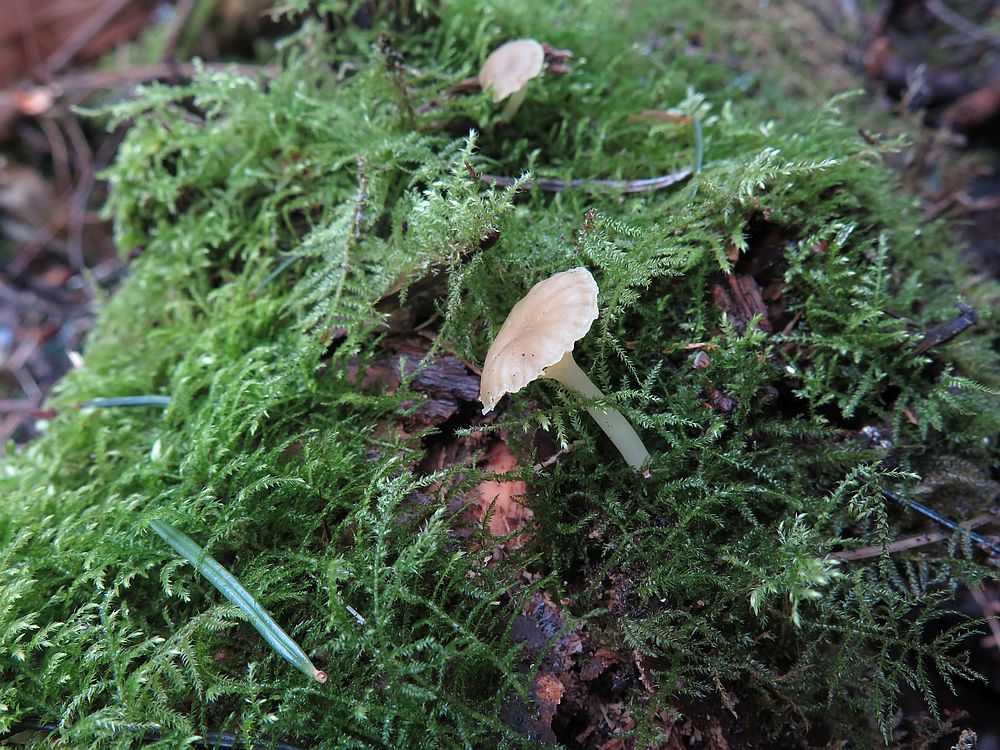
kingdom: Fungi
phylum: Basidiomycota
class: Agaricomycetes
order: Agaricales
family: Hygrophoraceae
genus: Chrysomphalina
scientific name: Chrysomphalina grossula
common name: stød-gyldenblad
